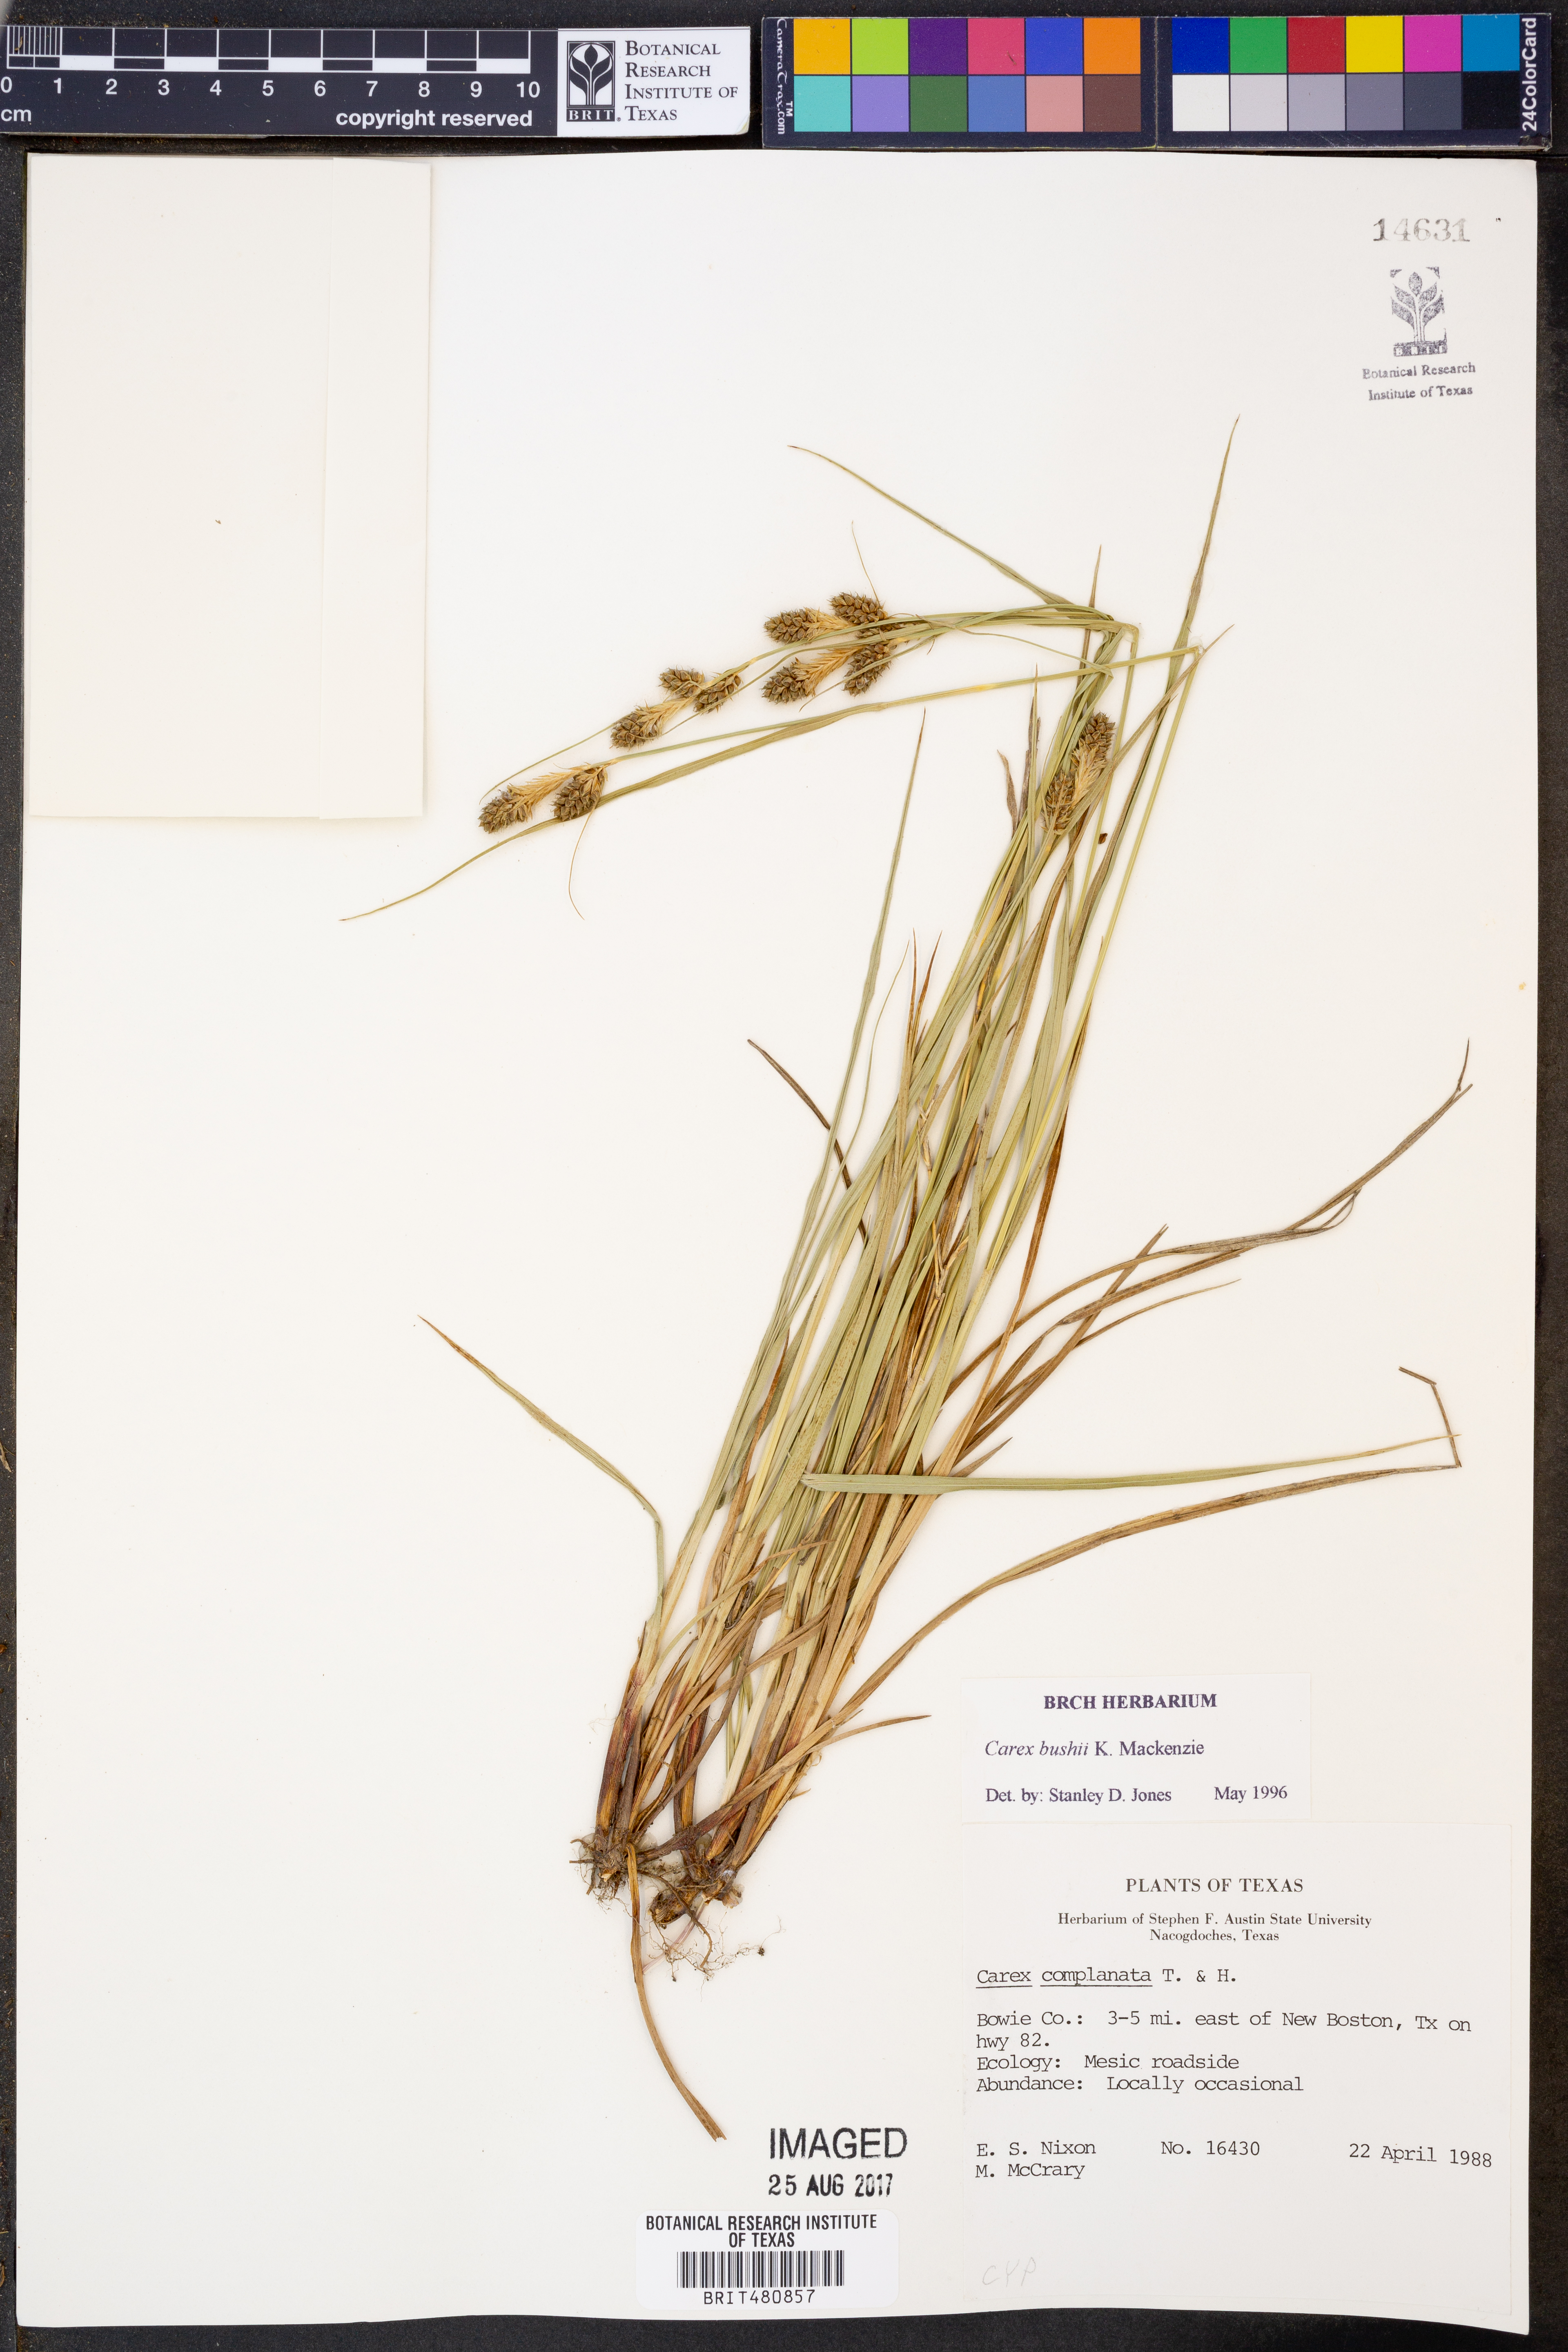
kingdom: Plantae
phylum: Tracheophyta
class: Liliopsida
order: Poales
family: Cyperaceae
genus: Carex
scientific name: Carex bushii
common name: Bush's sedge
